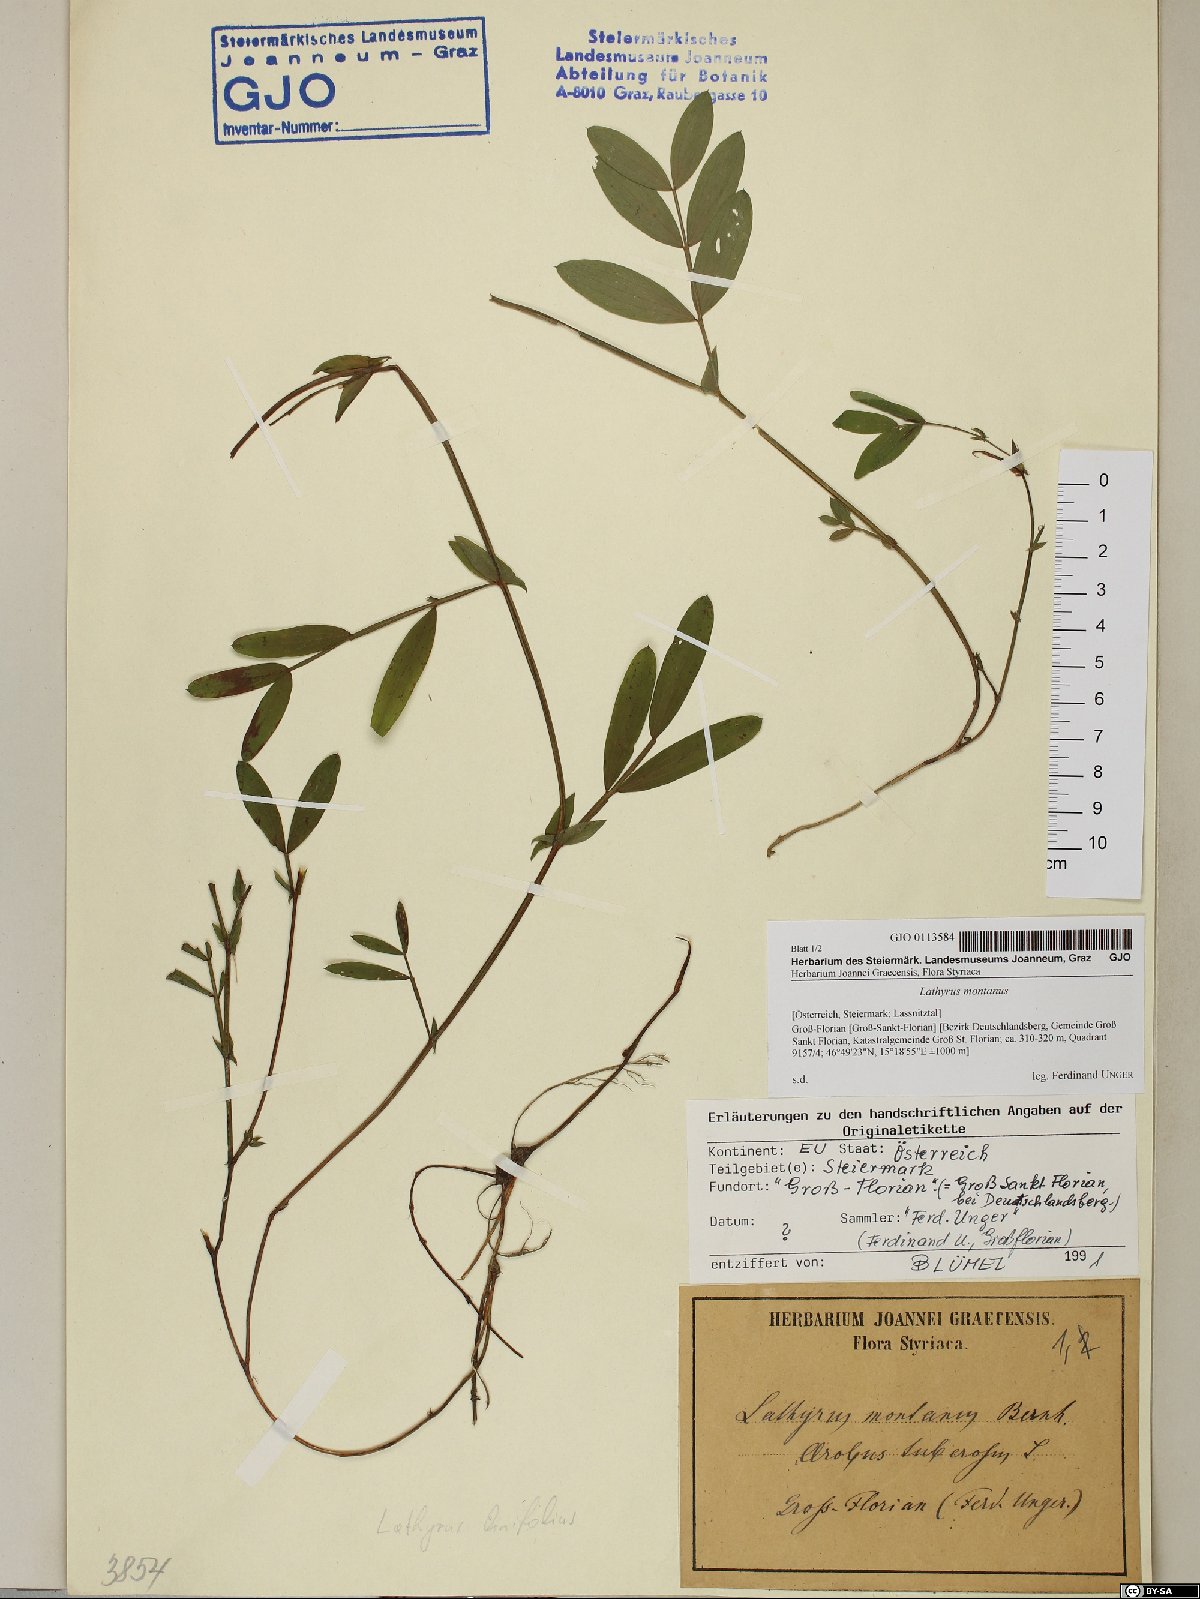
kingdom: Plantae
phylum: Tracheophyta
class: Magnoliopsida
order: Fabales
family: Fabaceae
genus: Lathyrus
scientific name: Lathyrus linifolius
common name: Bitter-vetch
